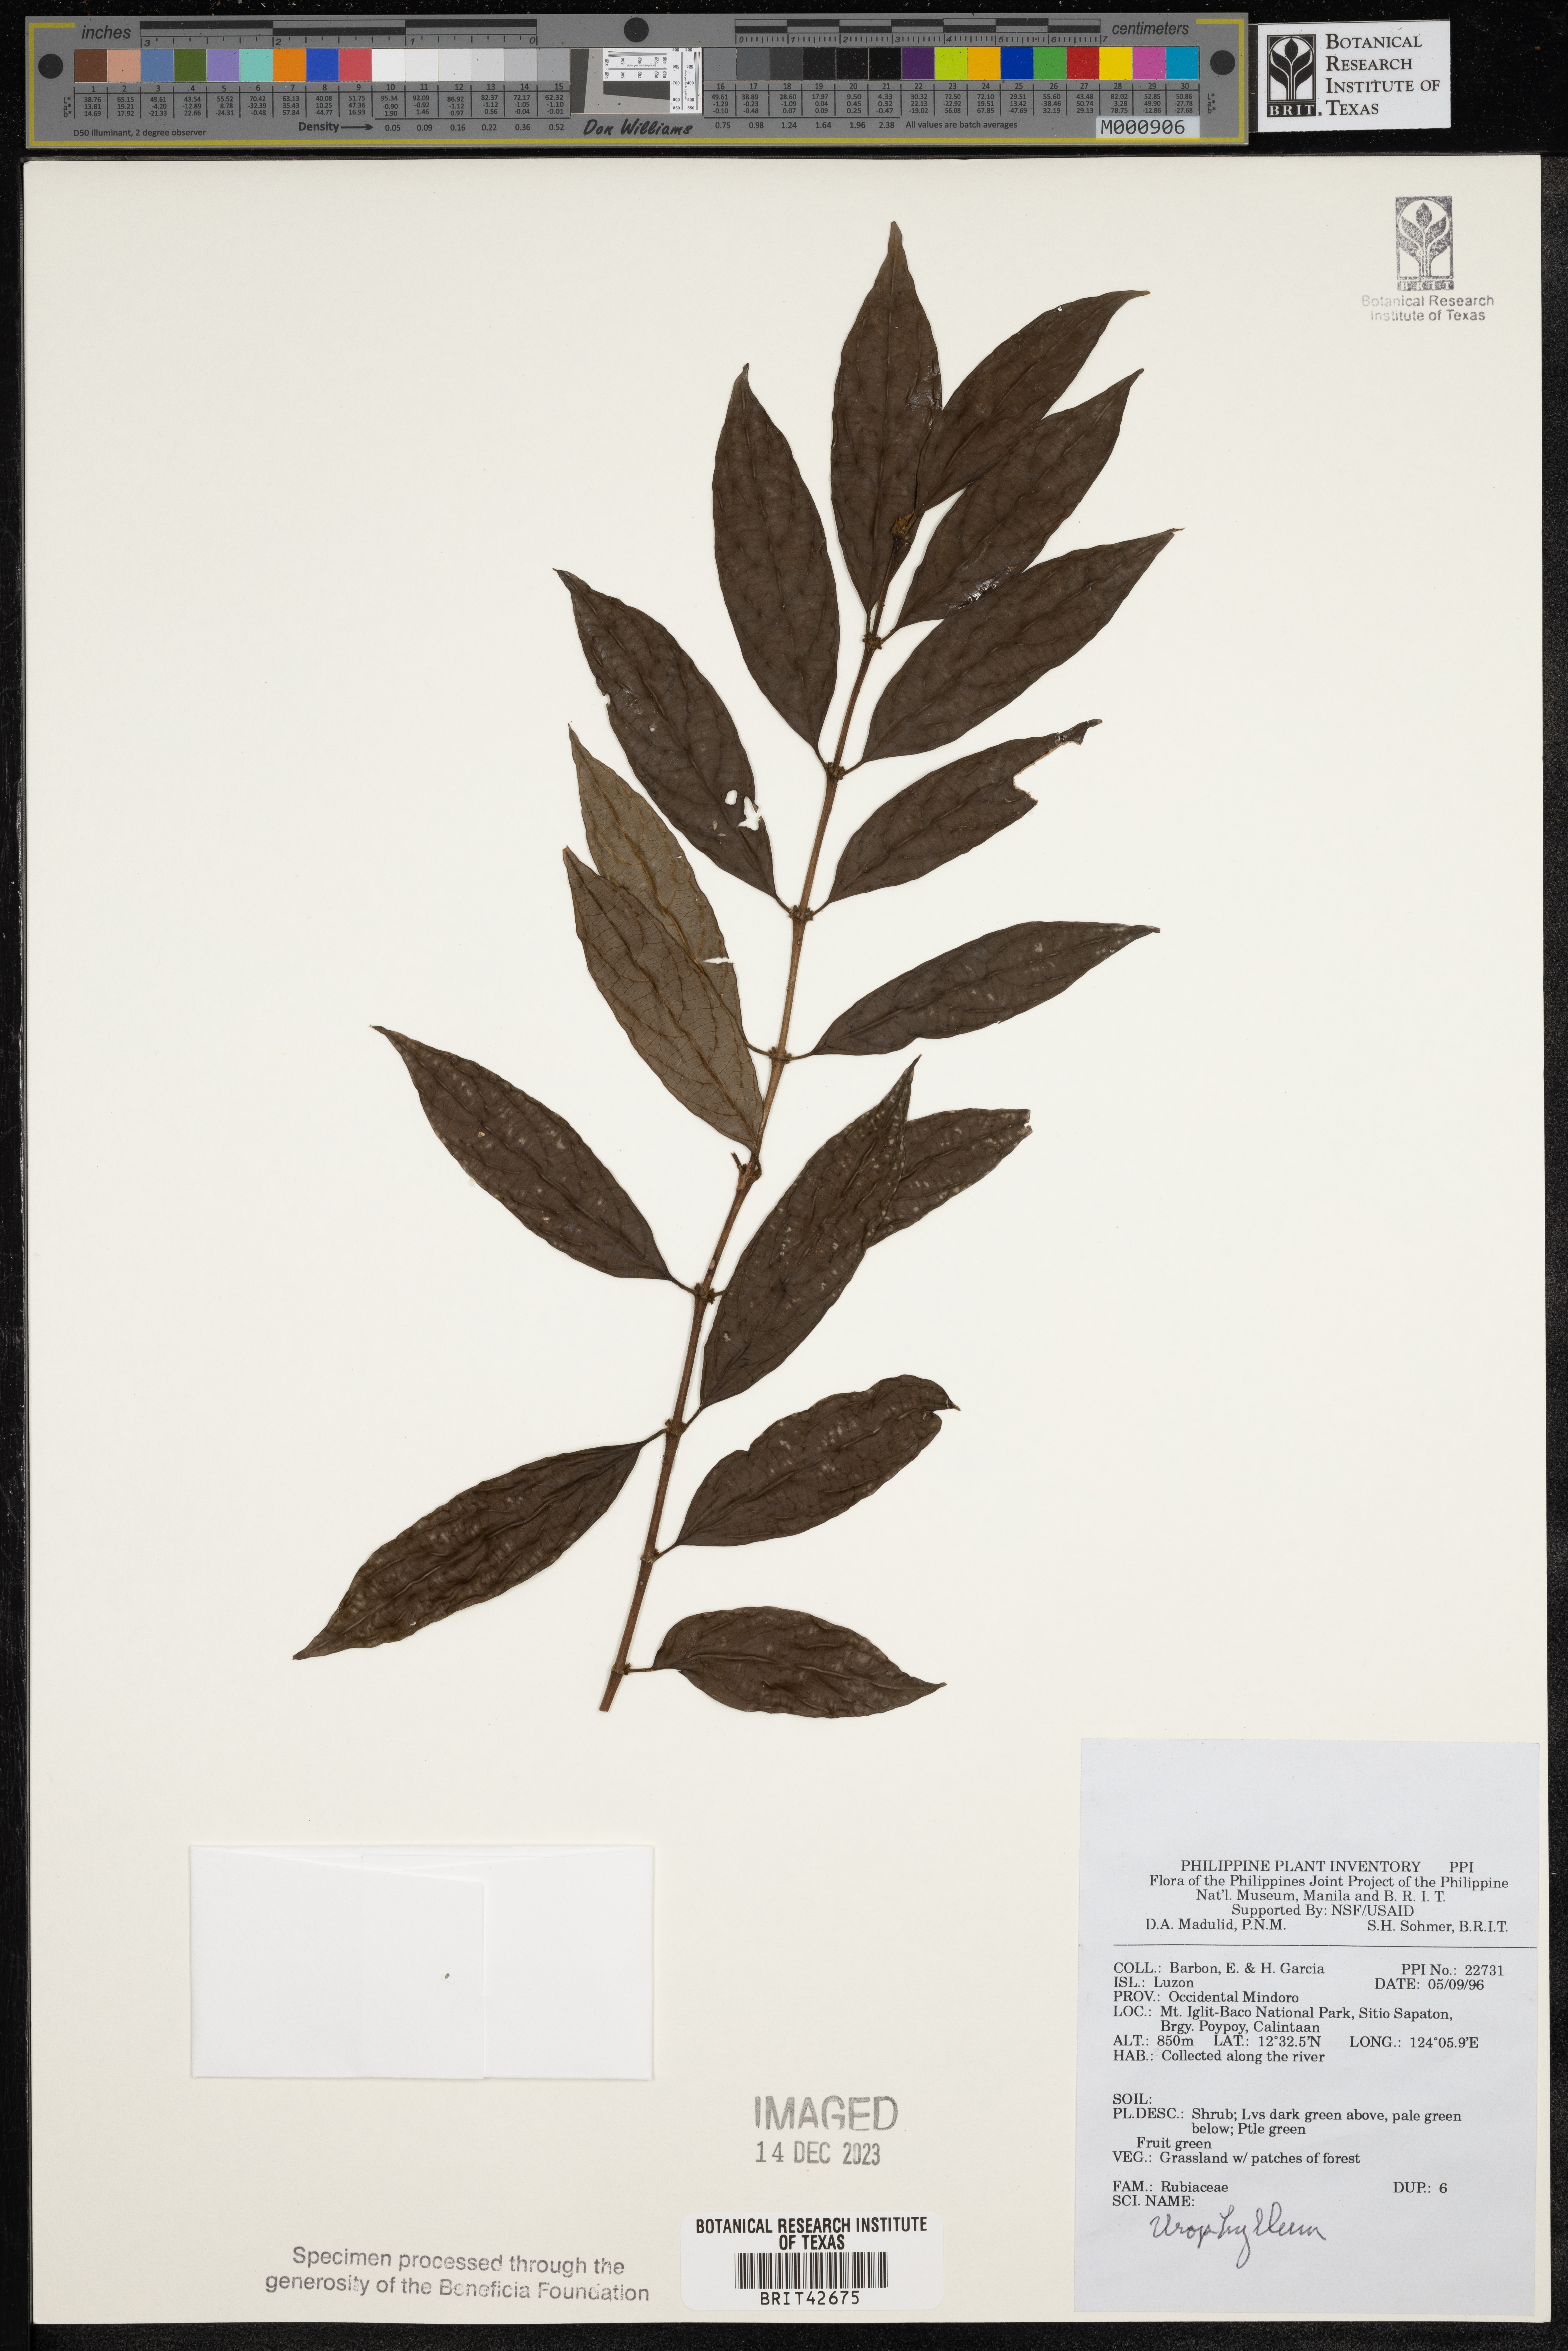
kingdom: Plantae
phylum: Tracheophyta
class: Magnoliopsida
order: Gentianales
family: Rubiaceae
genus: Urophyllum
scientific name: Urophyllum
